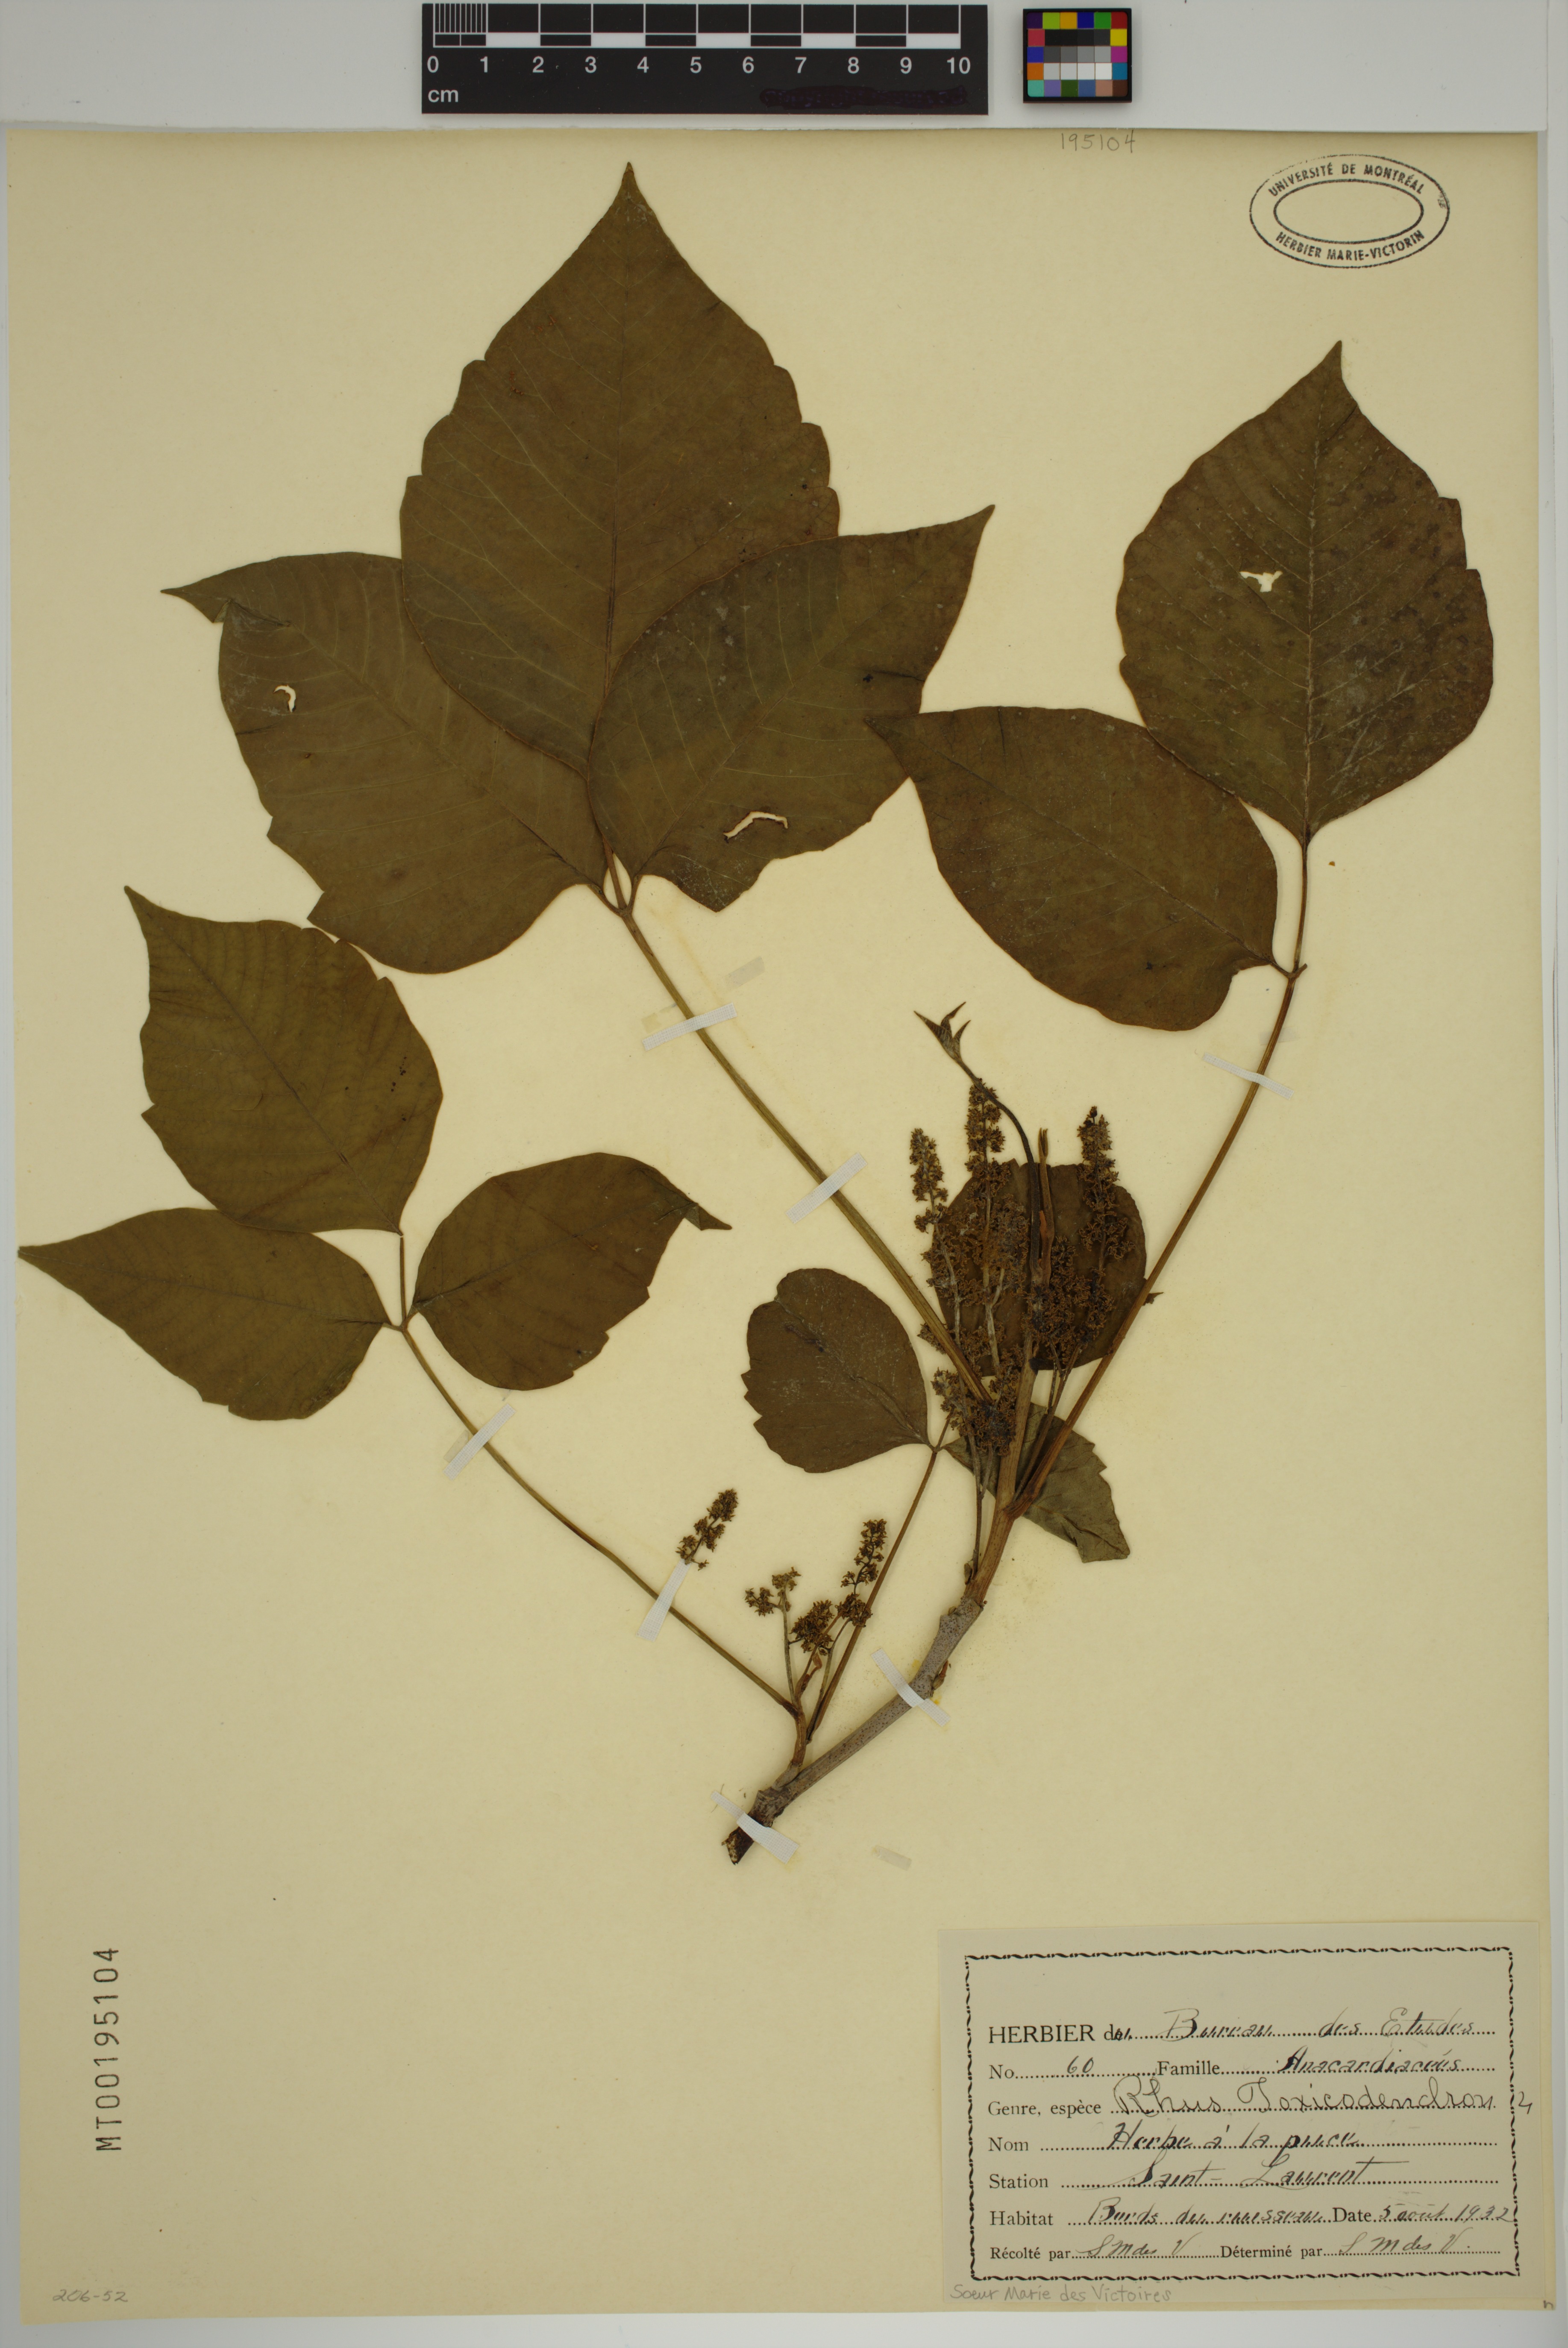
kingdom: Plantae
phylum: Tracheophyta
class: Magnoliopsida
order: Sapindales
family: Anacardiaceae
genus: Toxicodendron
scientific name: Toxicodendron
